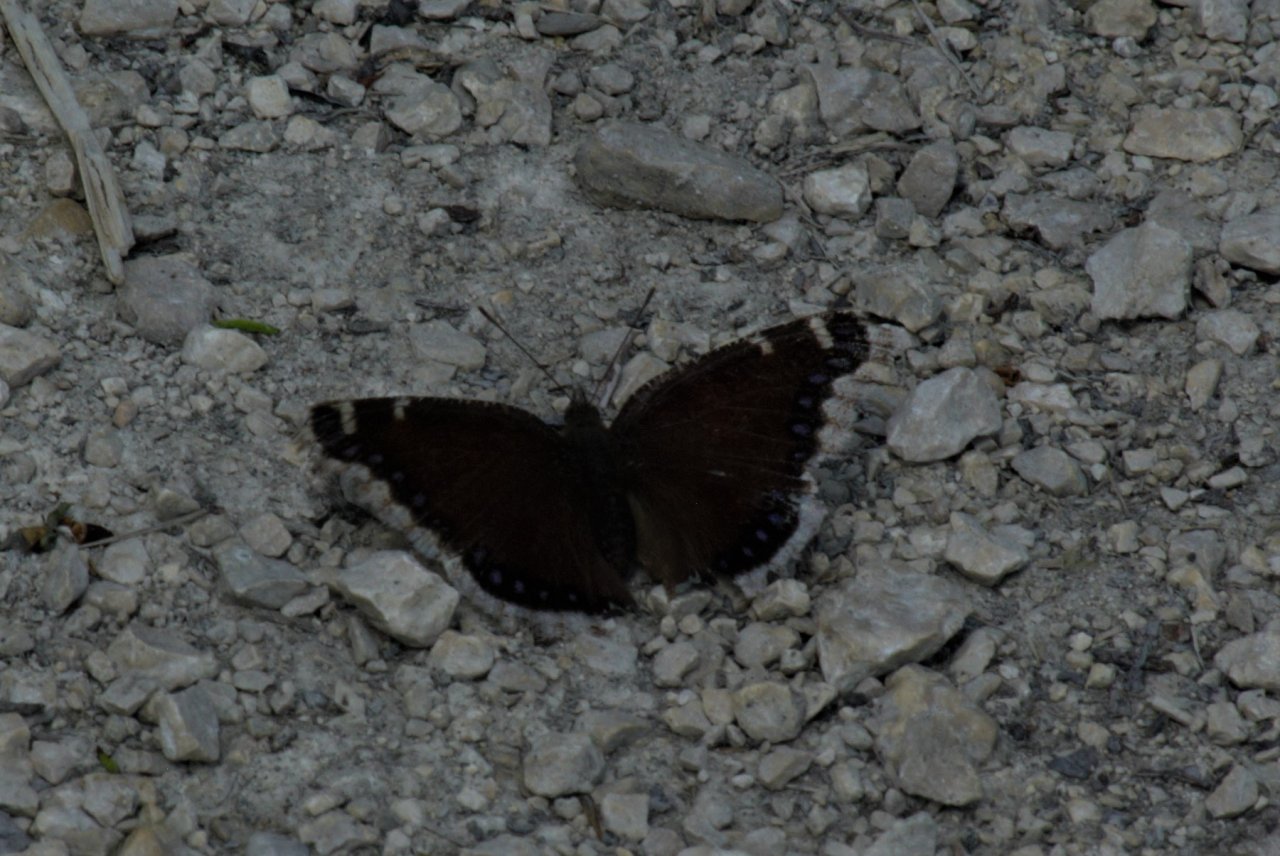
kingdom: Animalia
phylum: Arthropoda
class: Insecta
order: Lepidoptera
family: Nymphalidae
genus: Nymphalis
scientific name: Nymphalis antiopa
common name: Mourning Cloak
